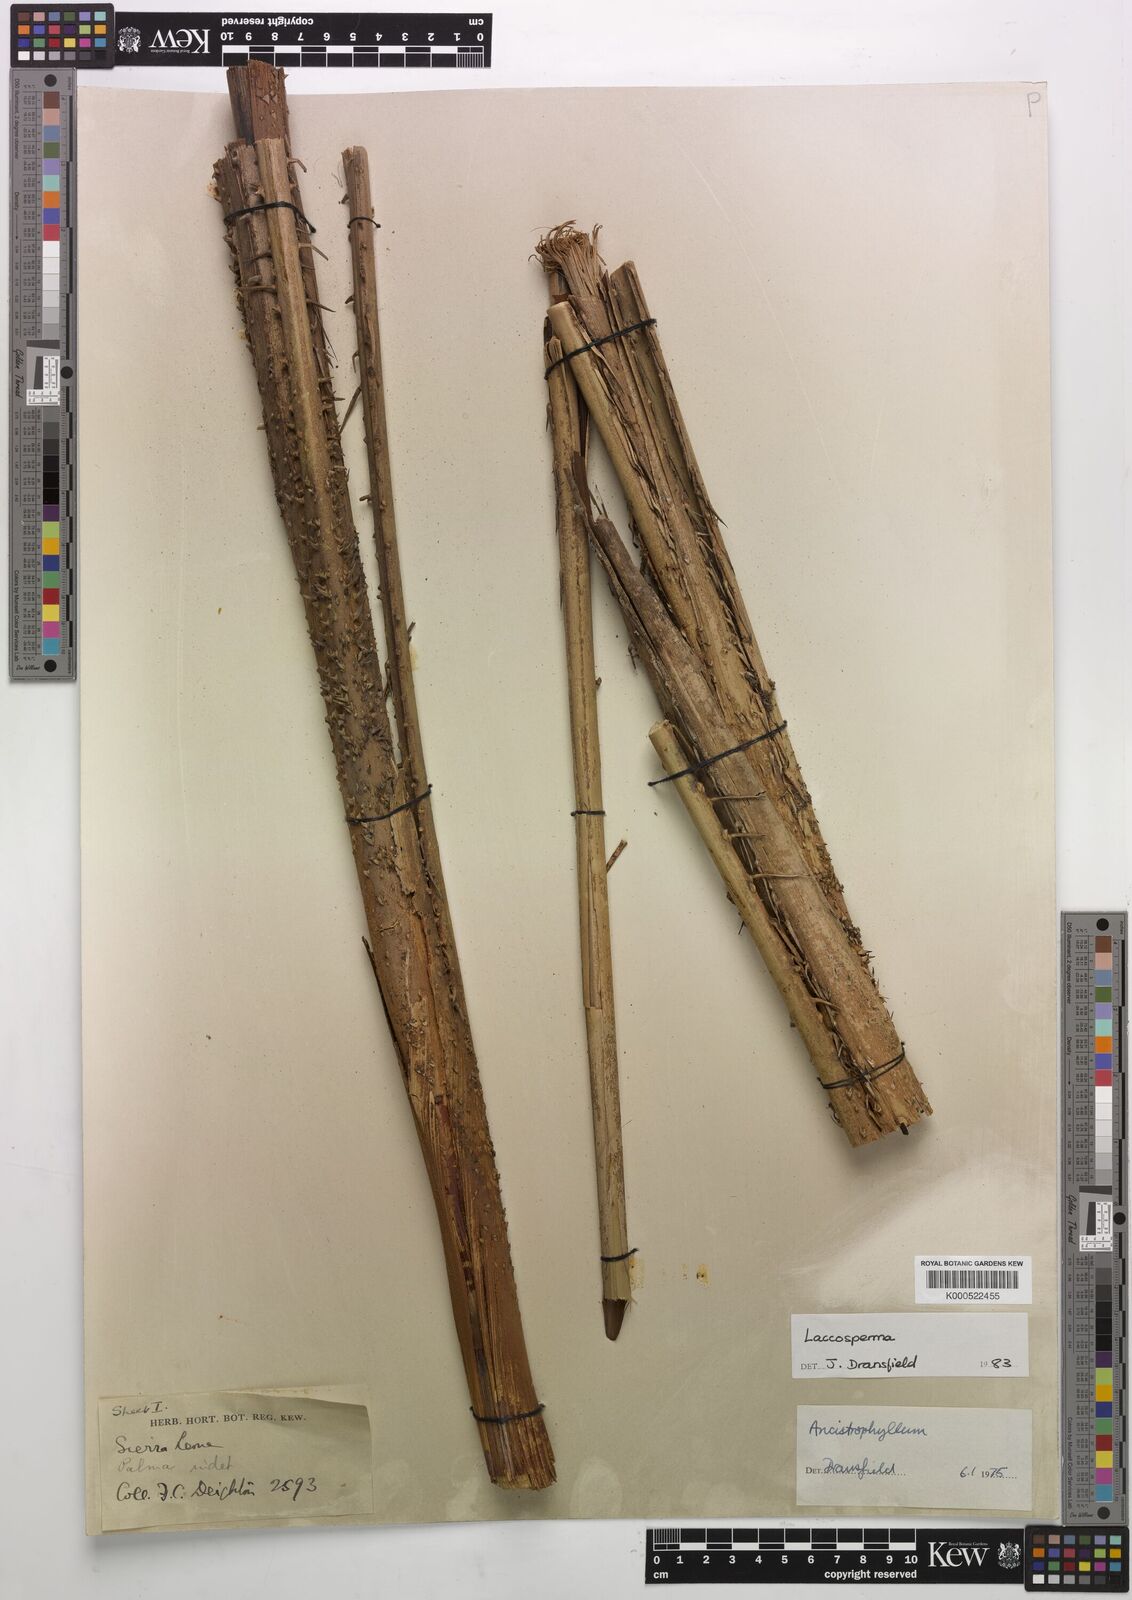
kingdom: Plantae
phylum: Tracheophyta
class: Liliopsida
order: Arecales
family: Arecaceae
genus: Laccosperma
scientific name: Laccosperma
